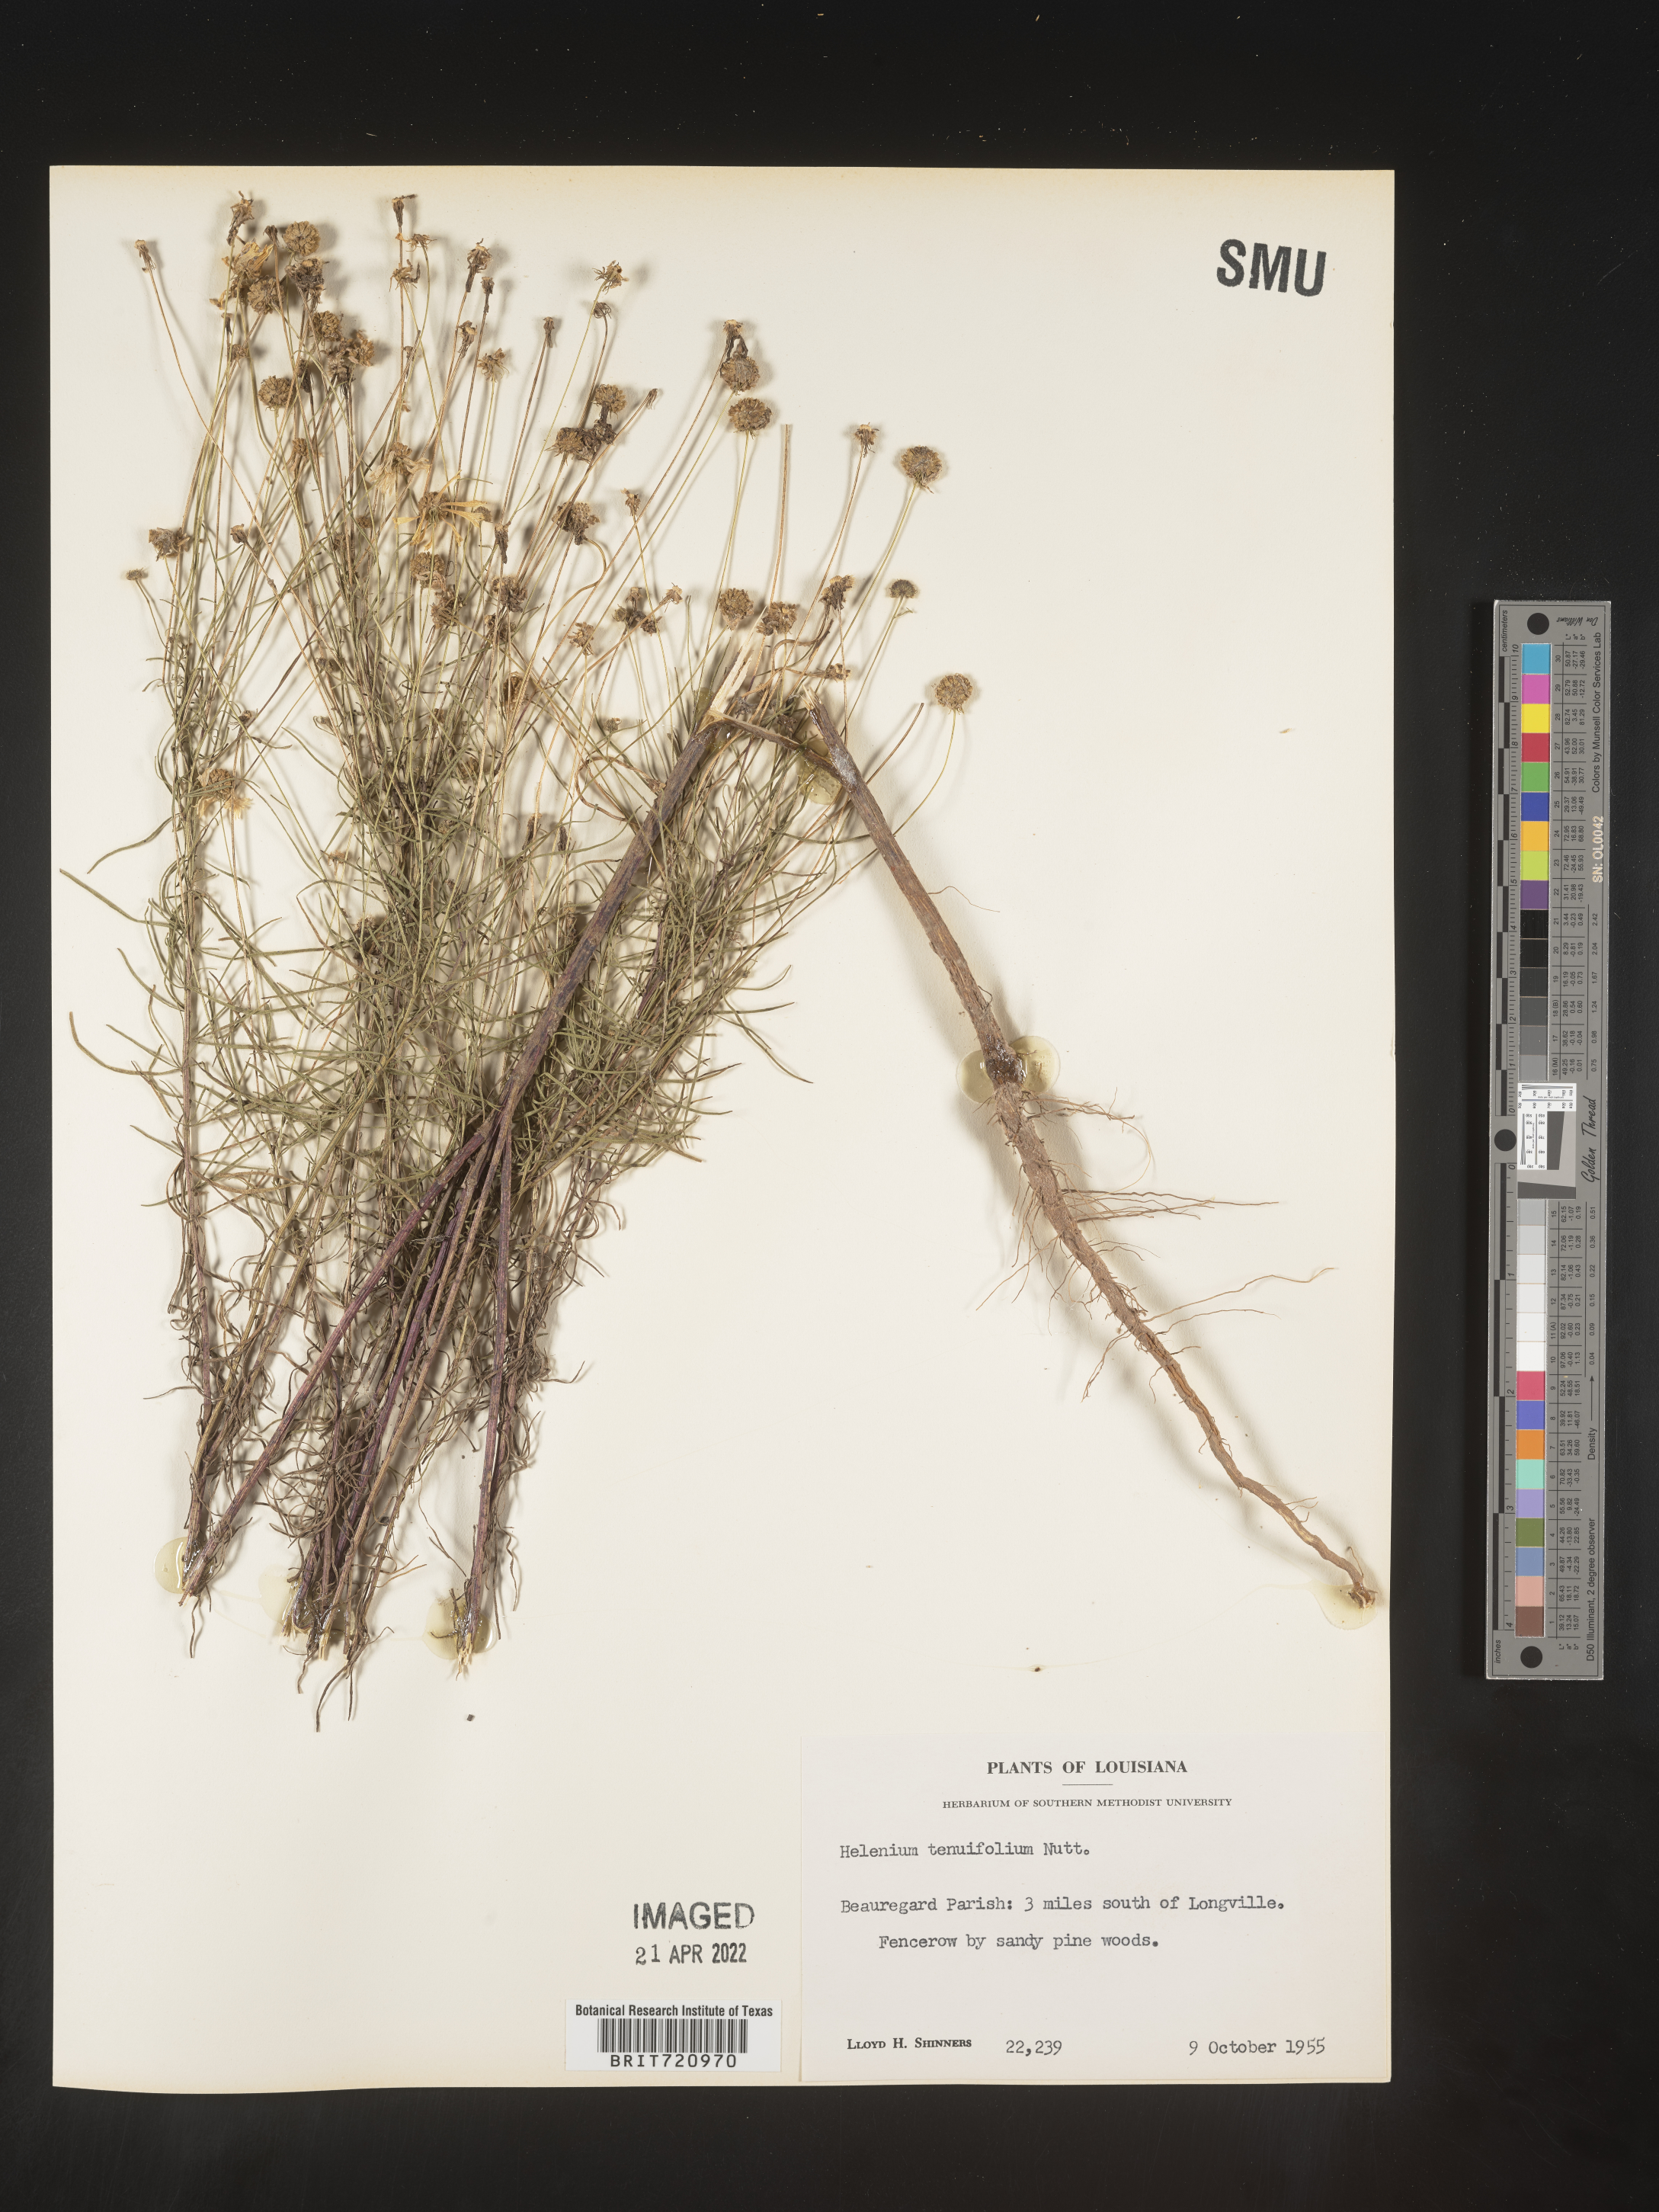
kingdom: Plantae
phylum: Tracheophyta
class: Magnoliopsida
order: Asterales
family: Asteraceae
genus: Helenium
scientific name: Helenium amarum
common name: Bitter sneezeweed
